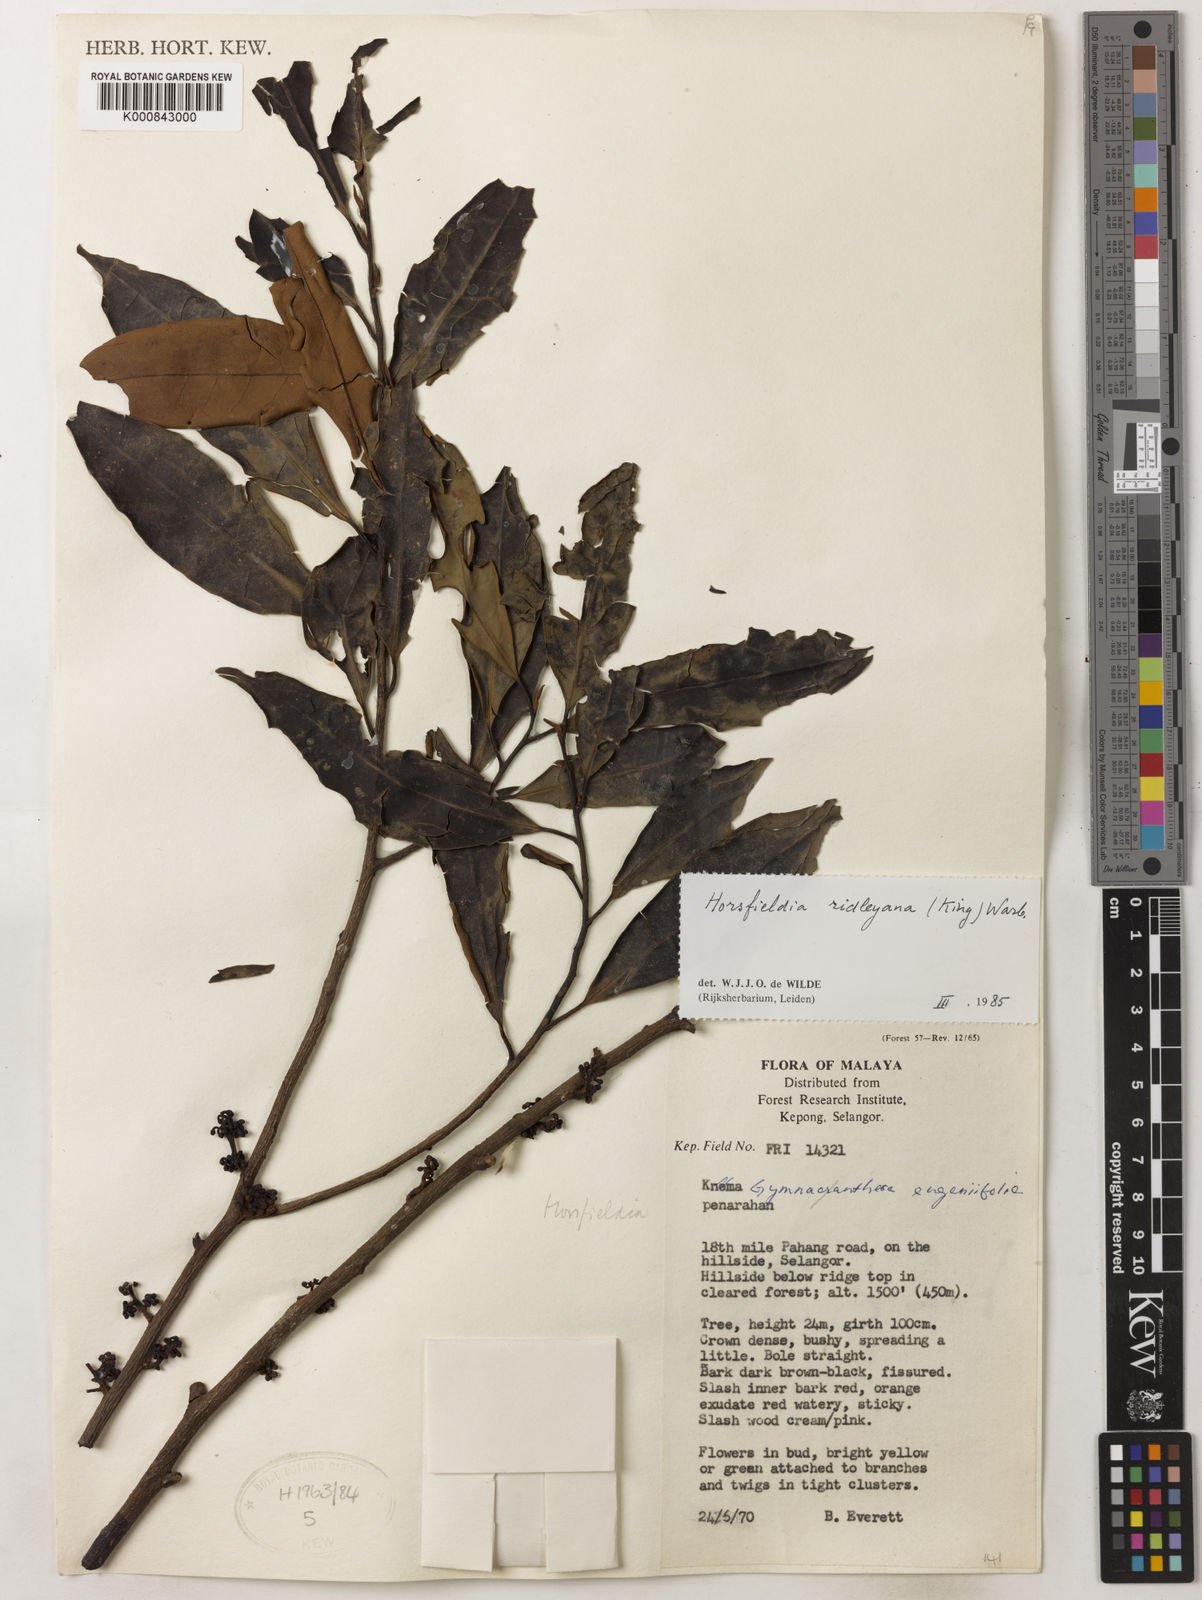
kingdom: Plantae
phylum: Tracheophyta
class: Magnoliopsida
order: Magnoliales
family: Myristicaceae
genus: Horsfieldia
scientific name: Horsfieldia ridleyana
